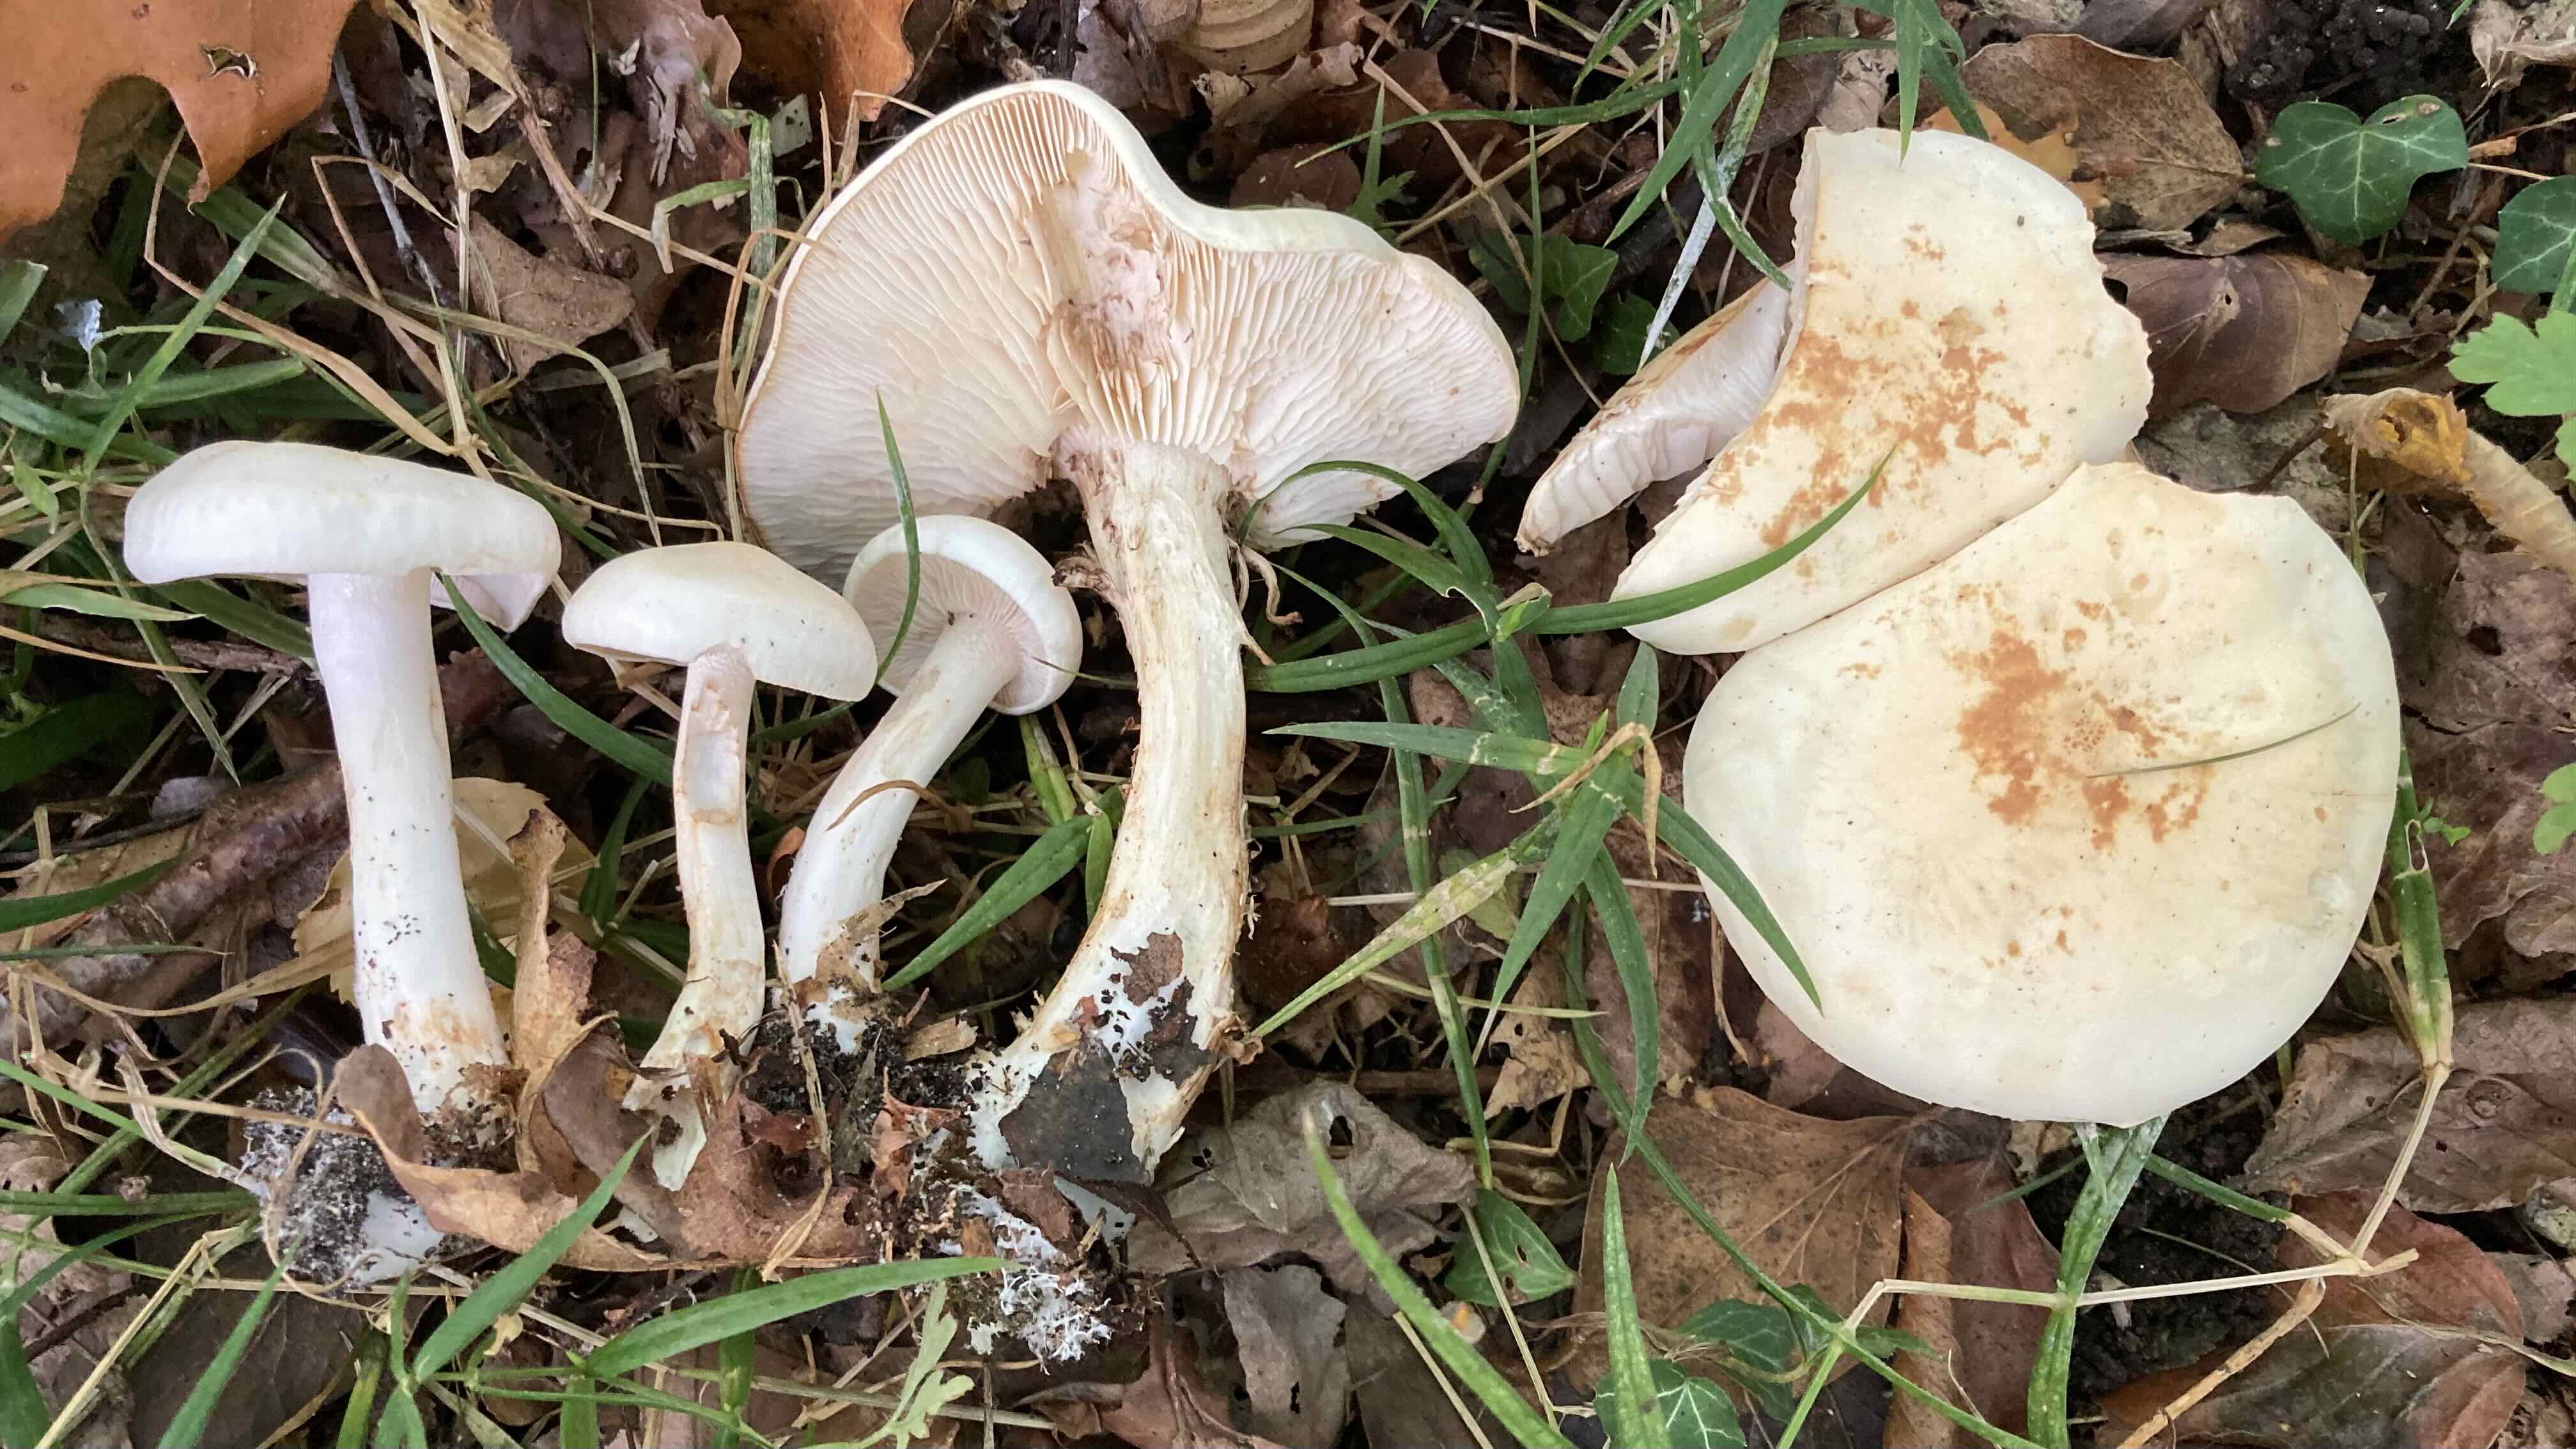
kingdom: Fungi
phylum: Basidiomycota
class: Agaricomycetes
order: Agaricales
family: Tricholomataceae
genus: Tricholoma
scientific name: Tricholoma stiparophyllum
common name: hvid ridderhat
